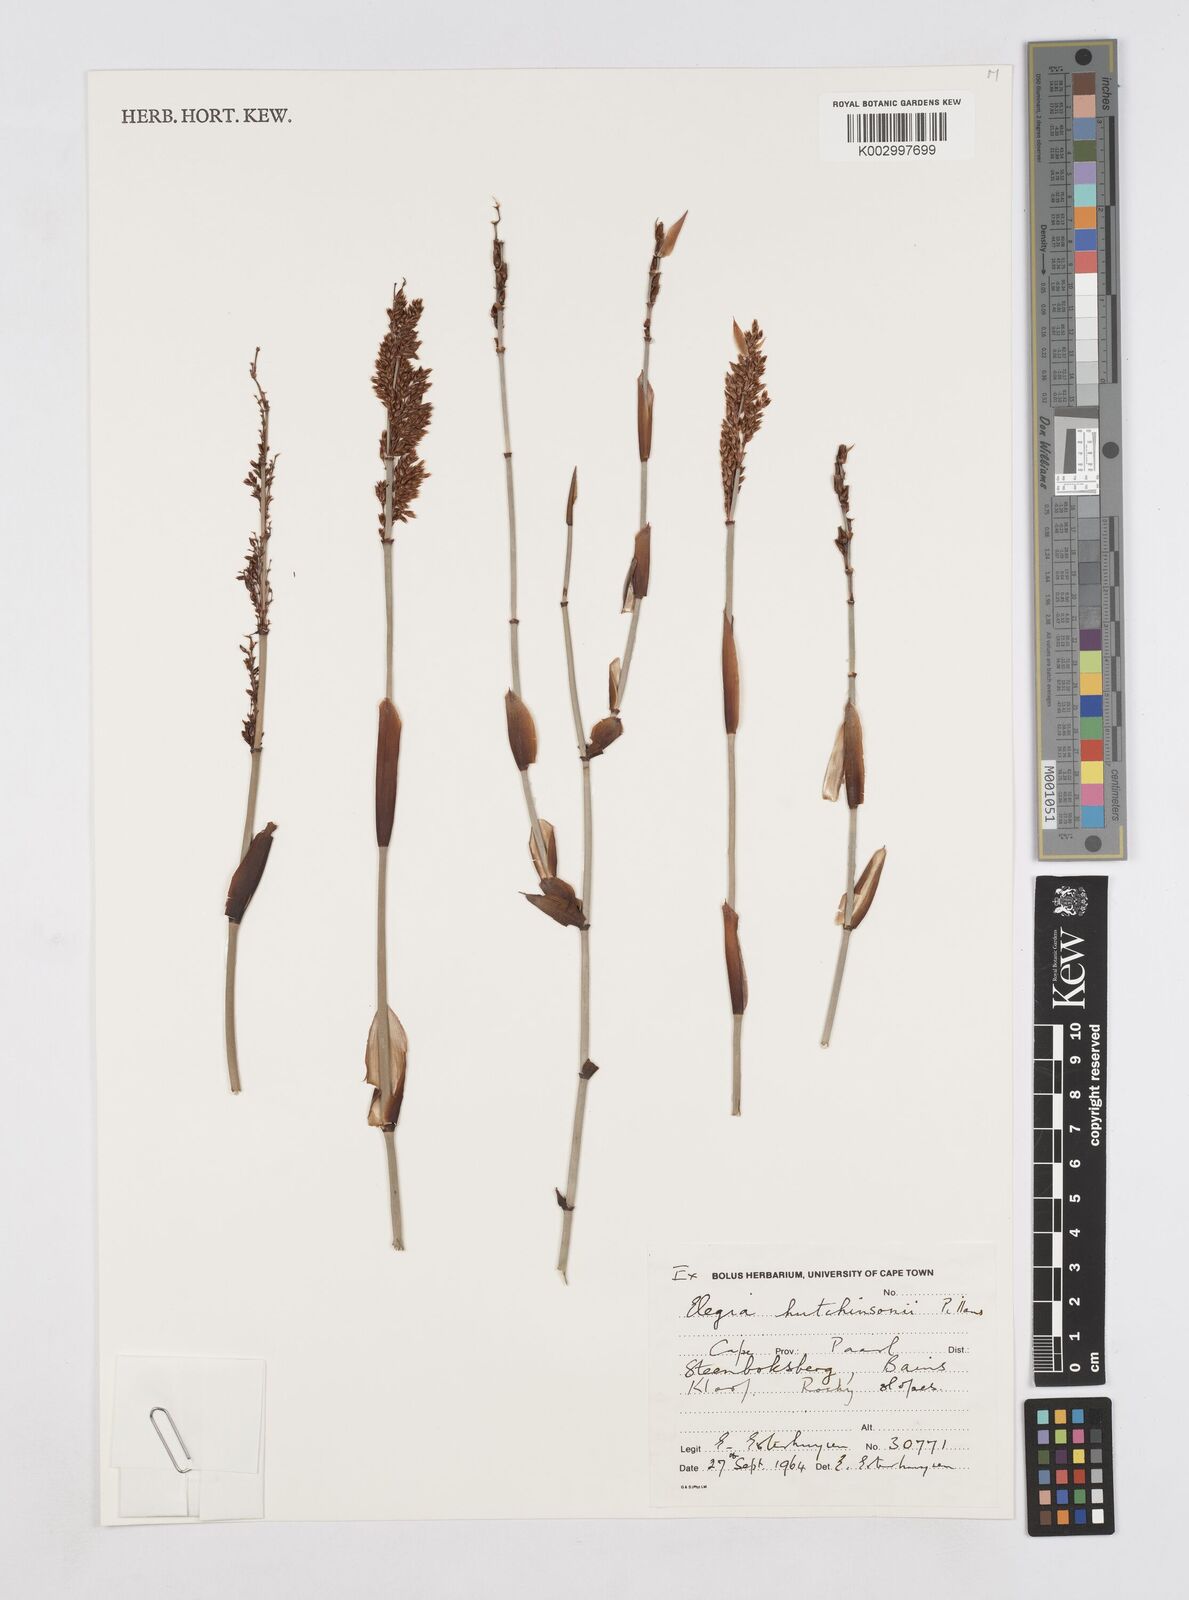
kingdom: Plantae
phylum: Tracheophyta
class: Liliopsida
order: Poales
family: Restionaceae
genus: Elegia
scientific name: Elegia hutchinsonii
